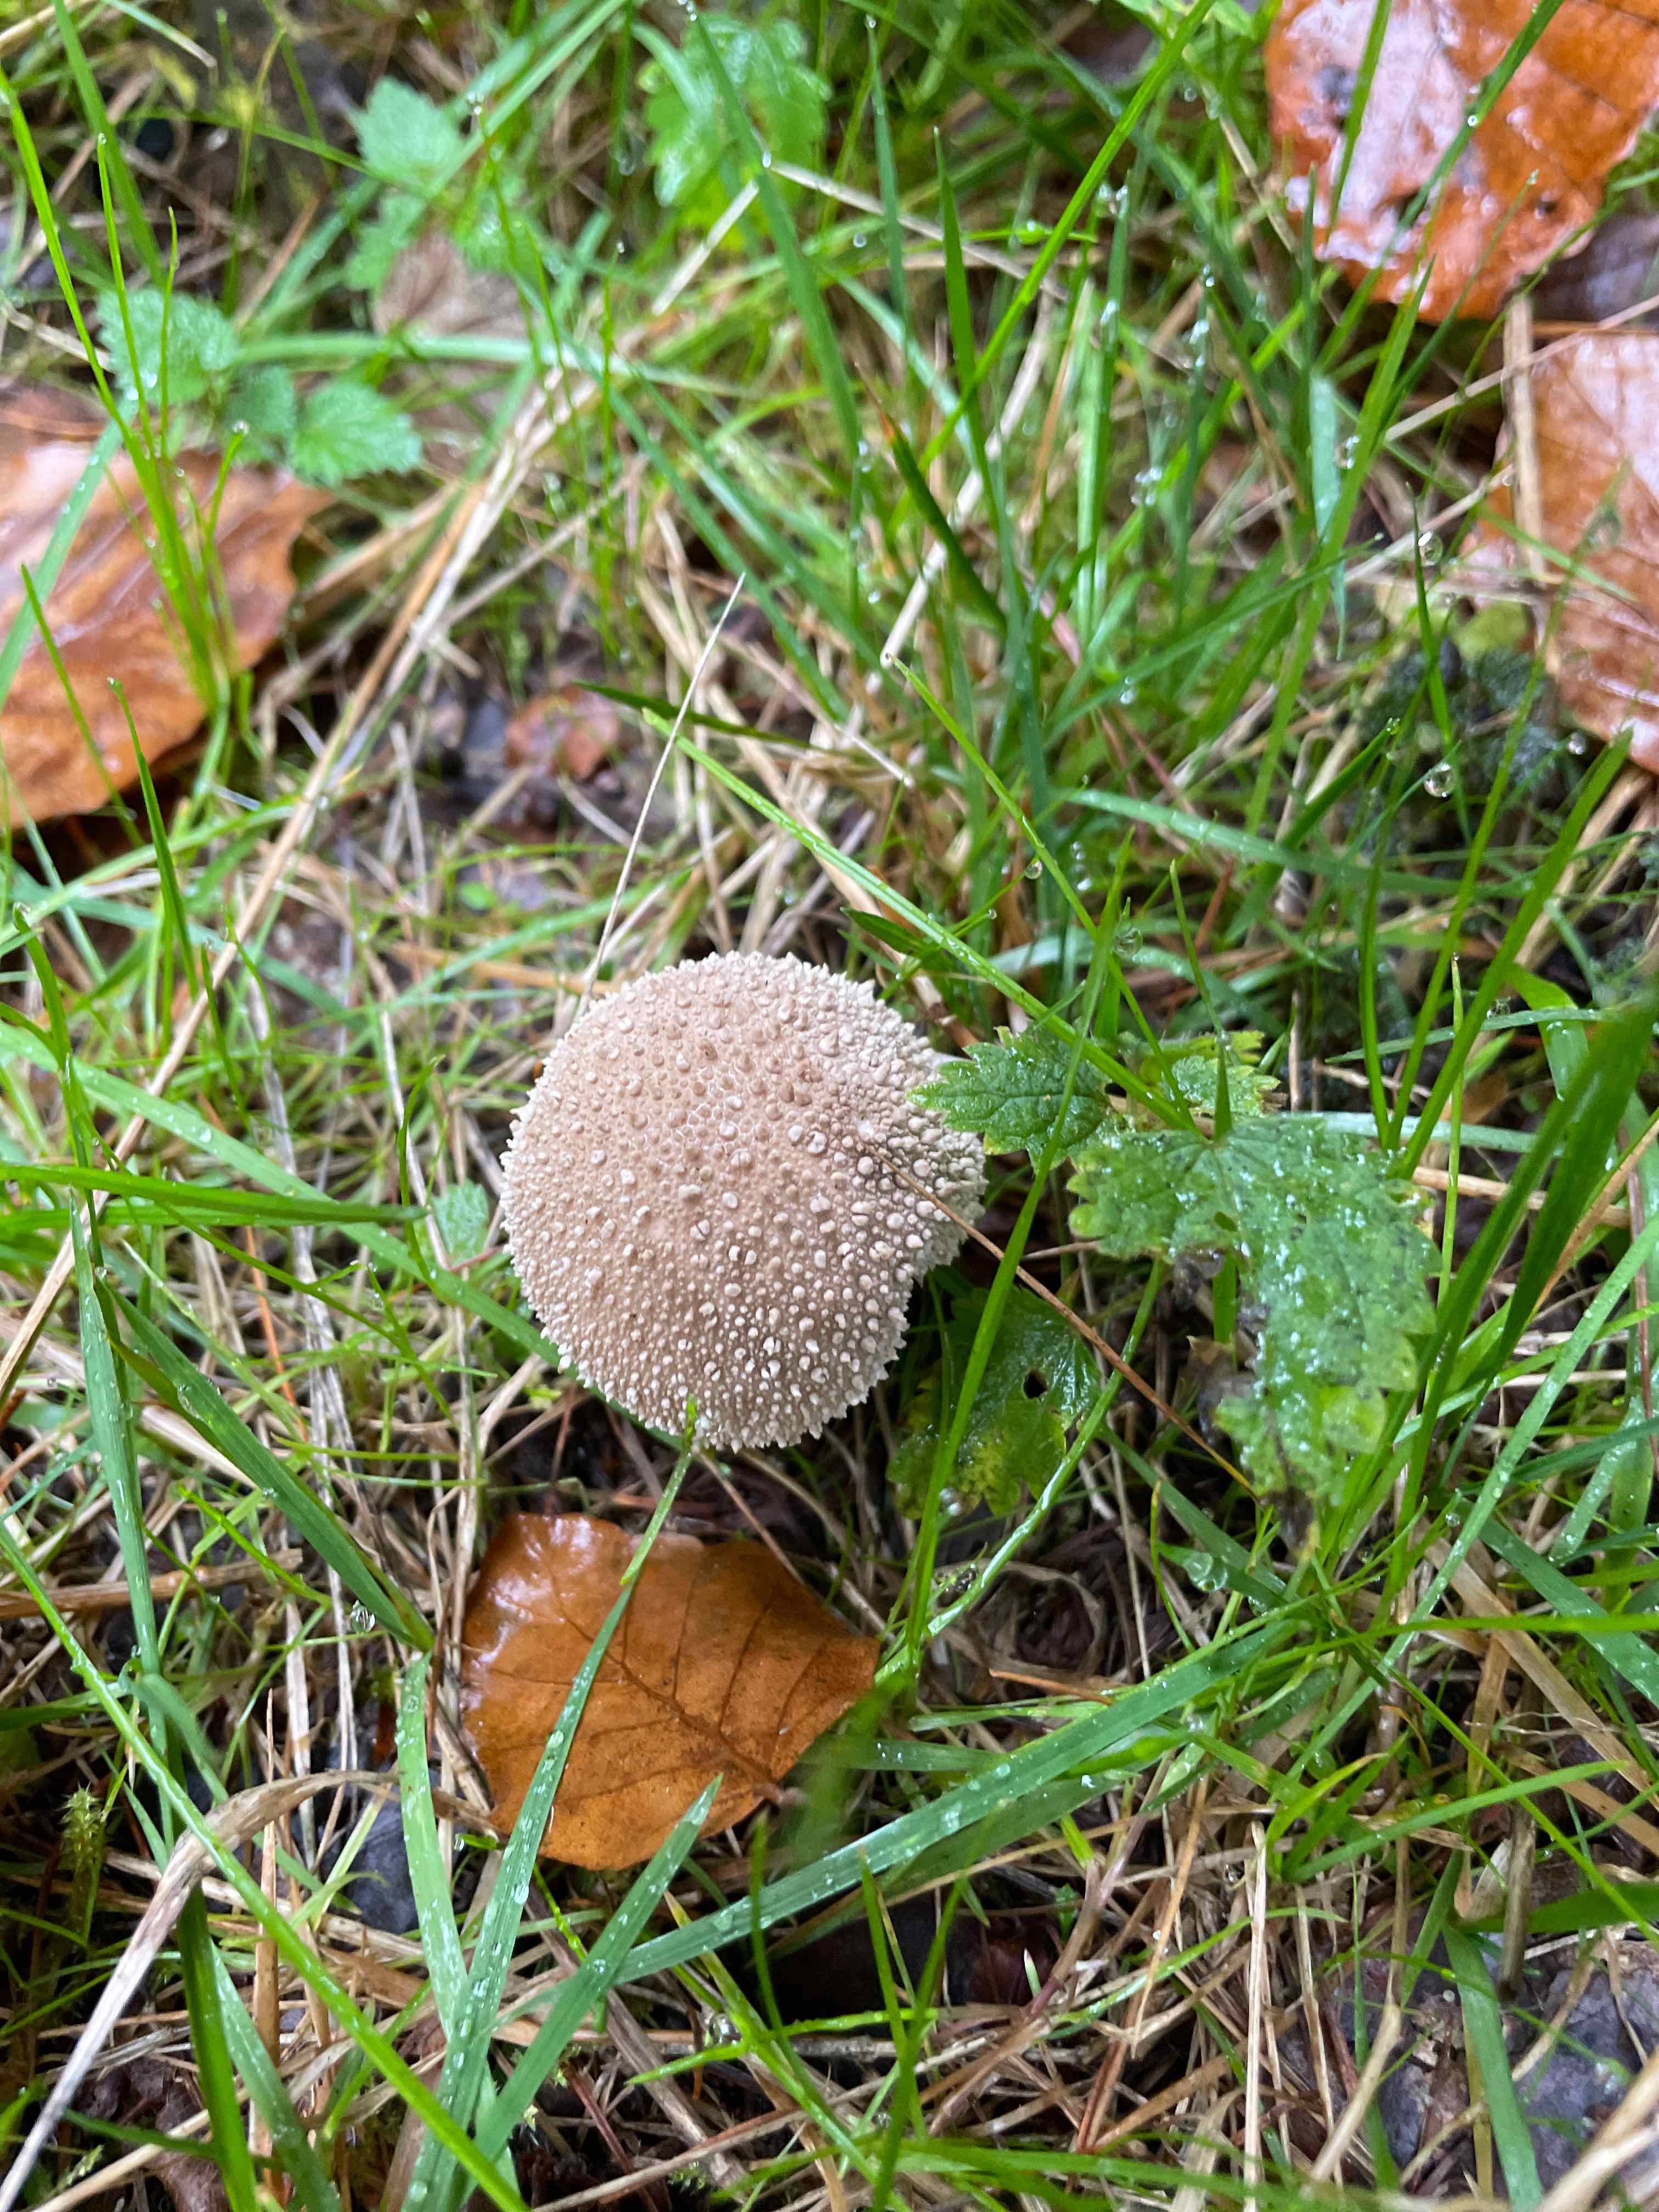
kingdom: Fungi
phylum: Basidiomycota
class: Agaricomycetes
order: Agaricales
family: Lycoperdaceae
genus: Lycoperdon
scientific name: Lycoperdon perlatum
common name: krystal-støvbold
